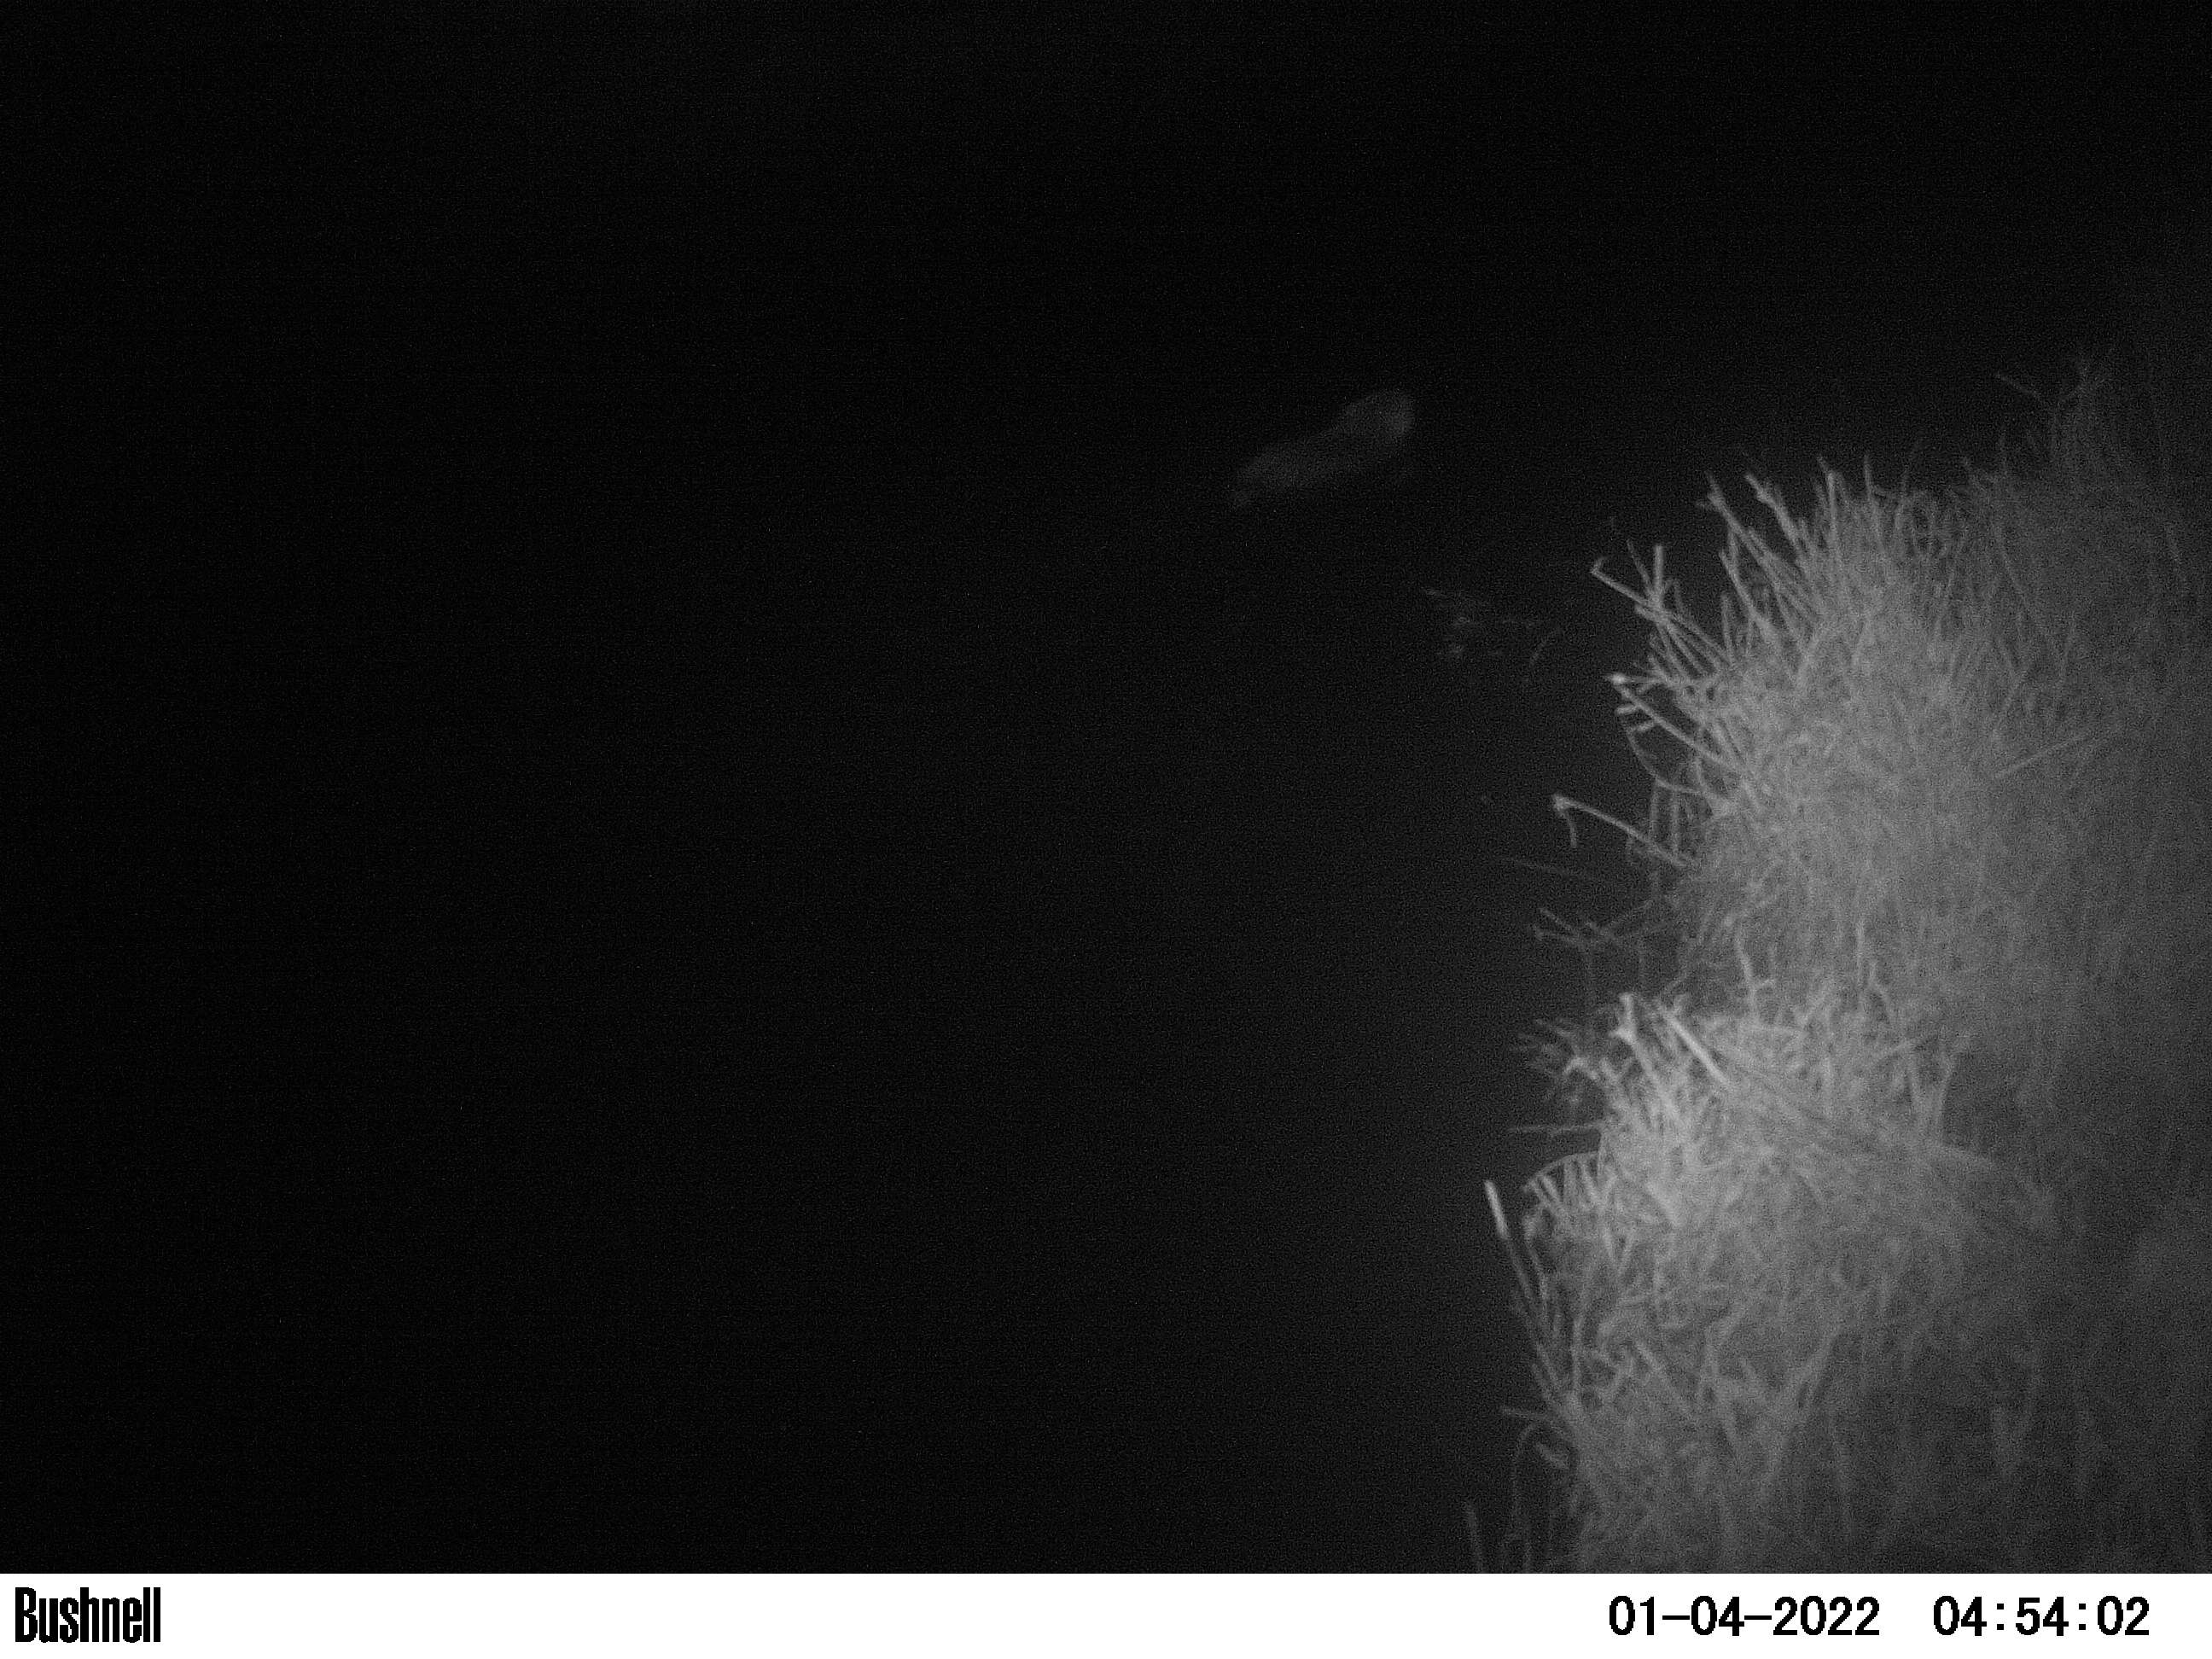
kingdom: Animalia
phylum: Chordata
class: Mammalia
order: Rodentia
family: Cricetidae
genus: Ondatra
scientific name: Ondatra zibethicus
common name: Muskrat
